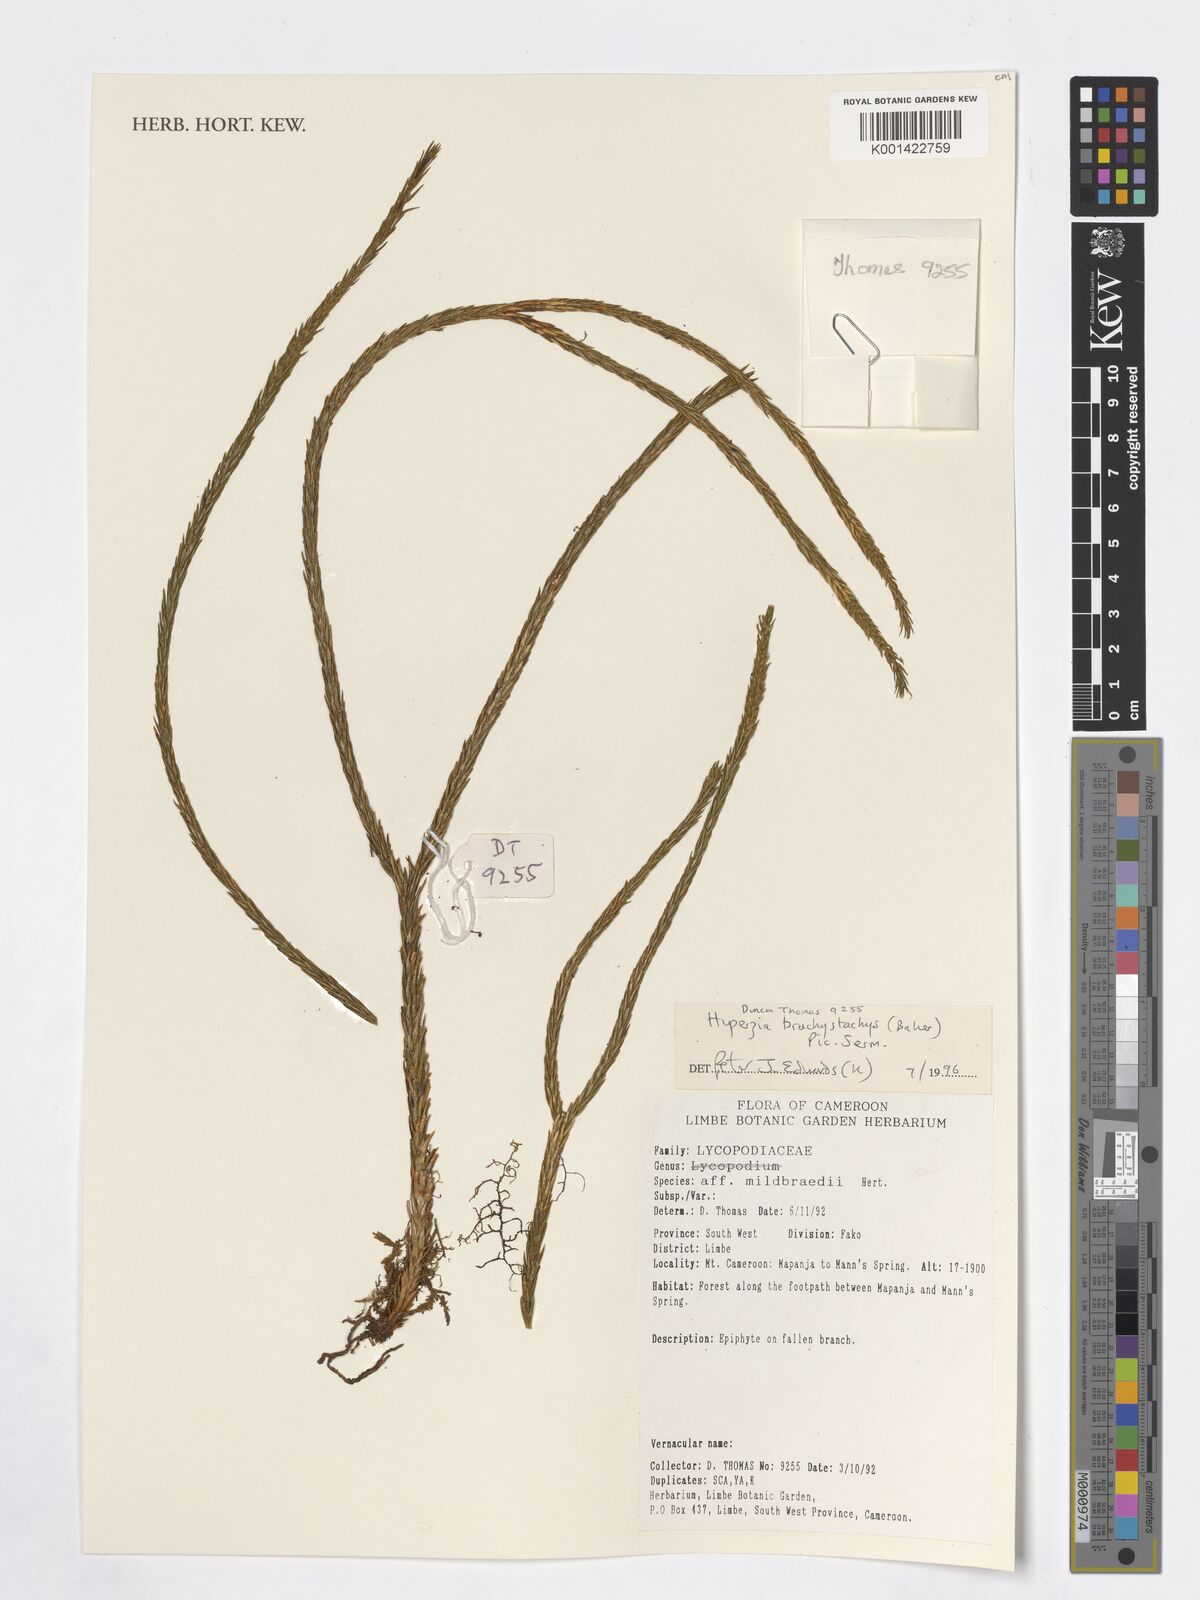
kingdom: Plantae
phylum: Tracheophyta
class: Lycopodiopsida
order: Lycopodiales
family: Lycopodiaceae
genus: Phlegmariurus
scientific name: Phlegmariurus brachystachys
